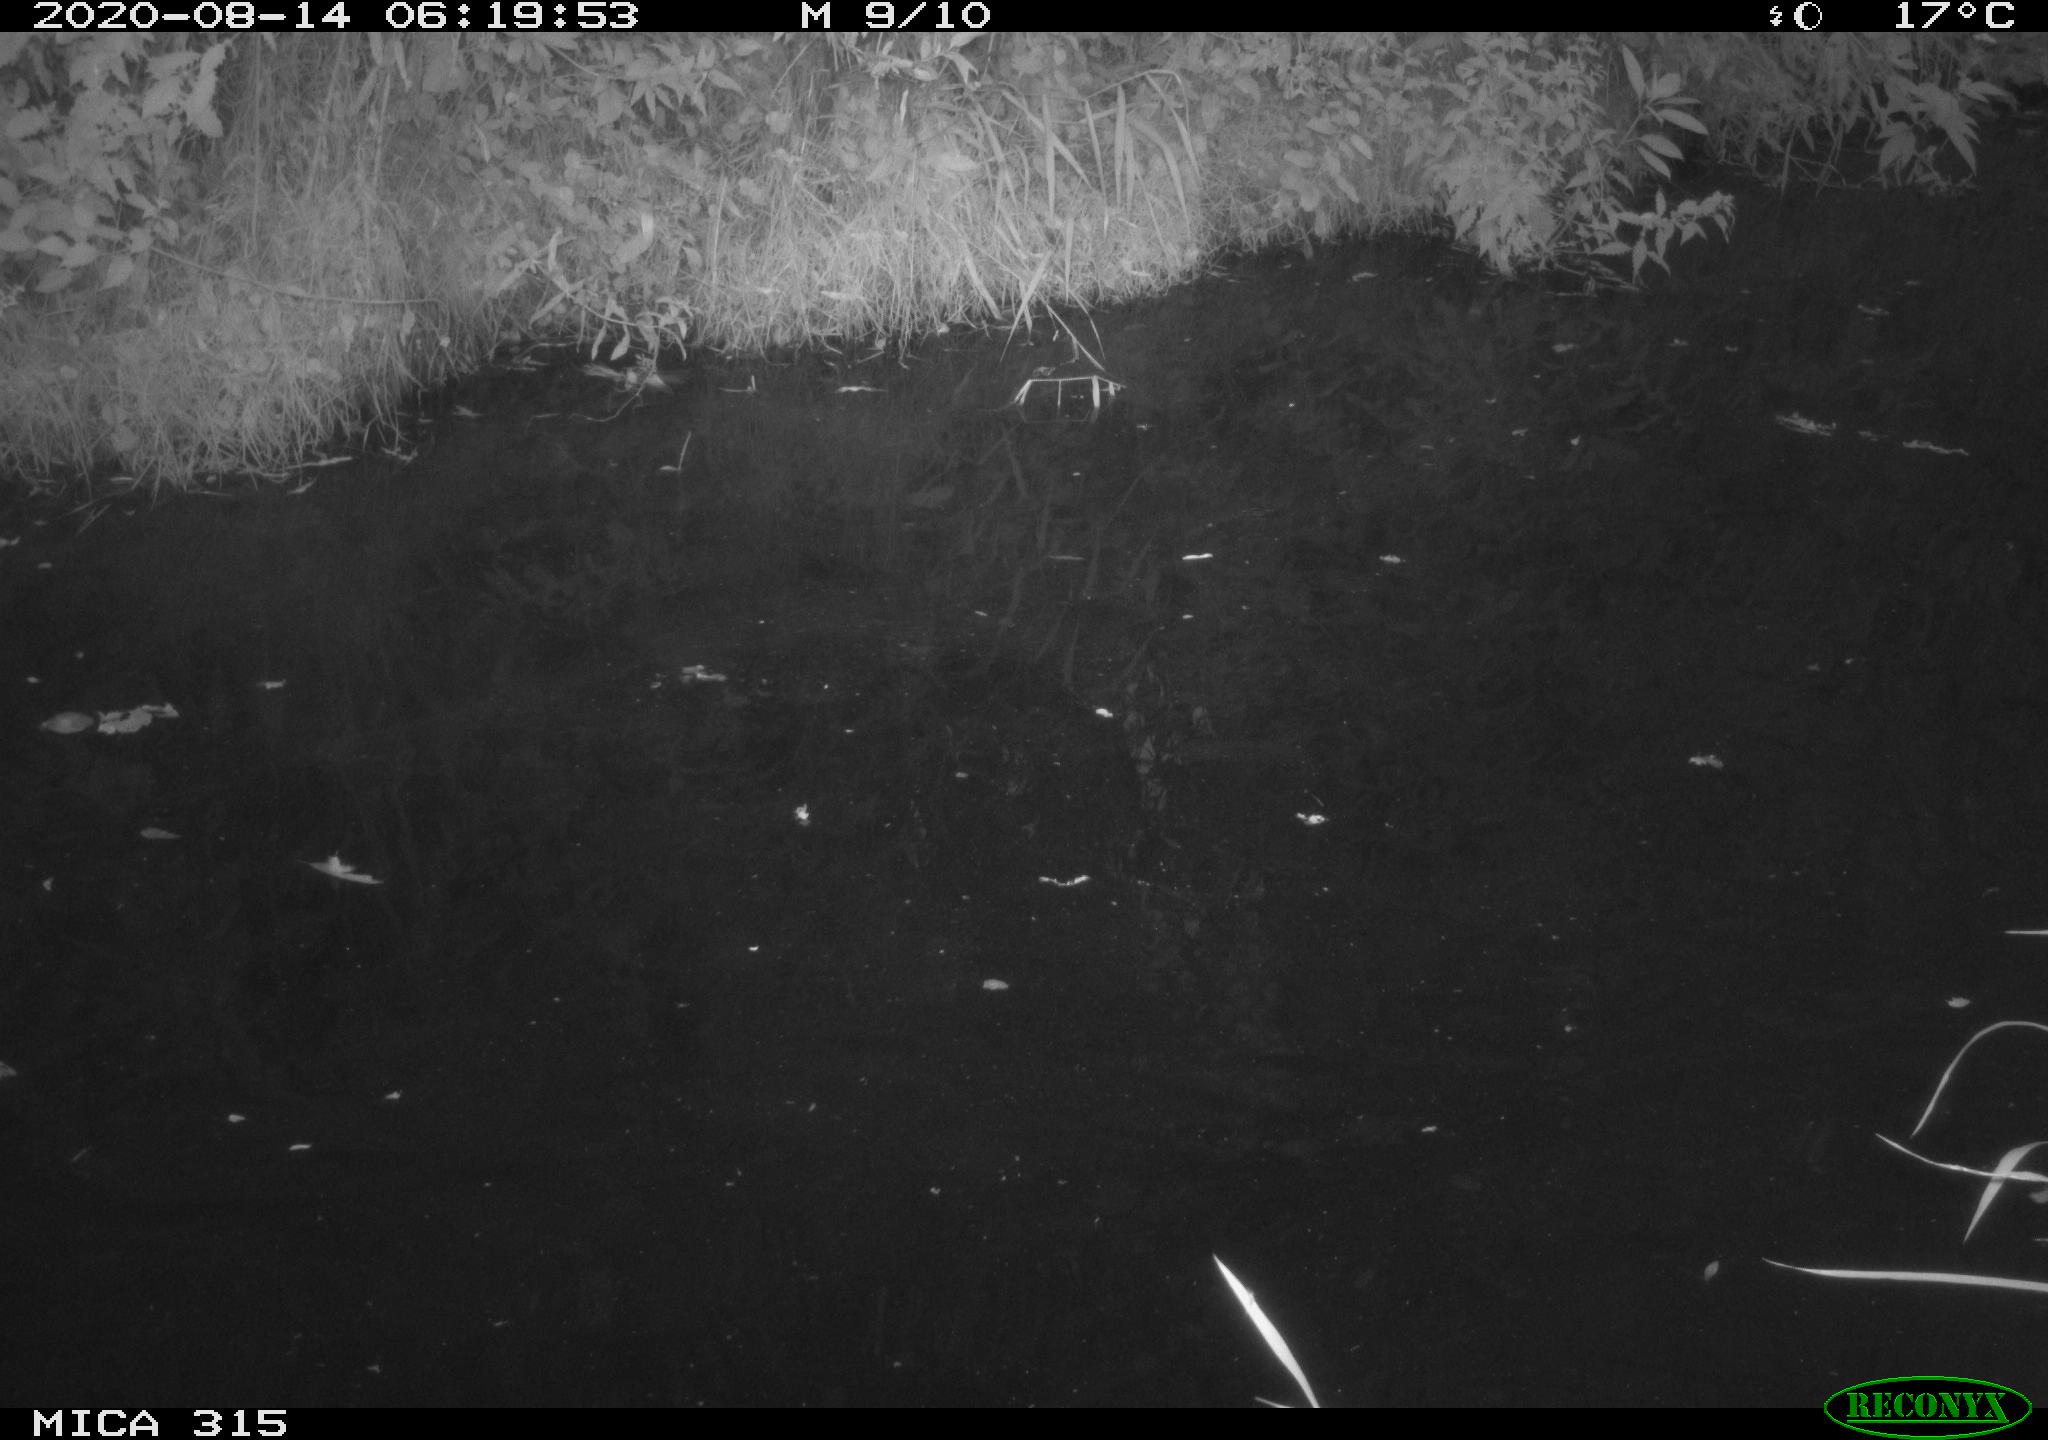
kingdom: Animalia
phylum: Chordata
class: Aves
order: Anseriformes
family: Anatidae
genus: Anas
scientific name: Anas platyrhynchos
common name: Mallard
